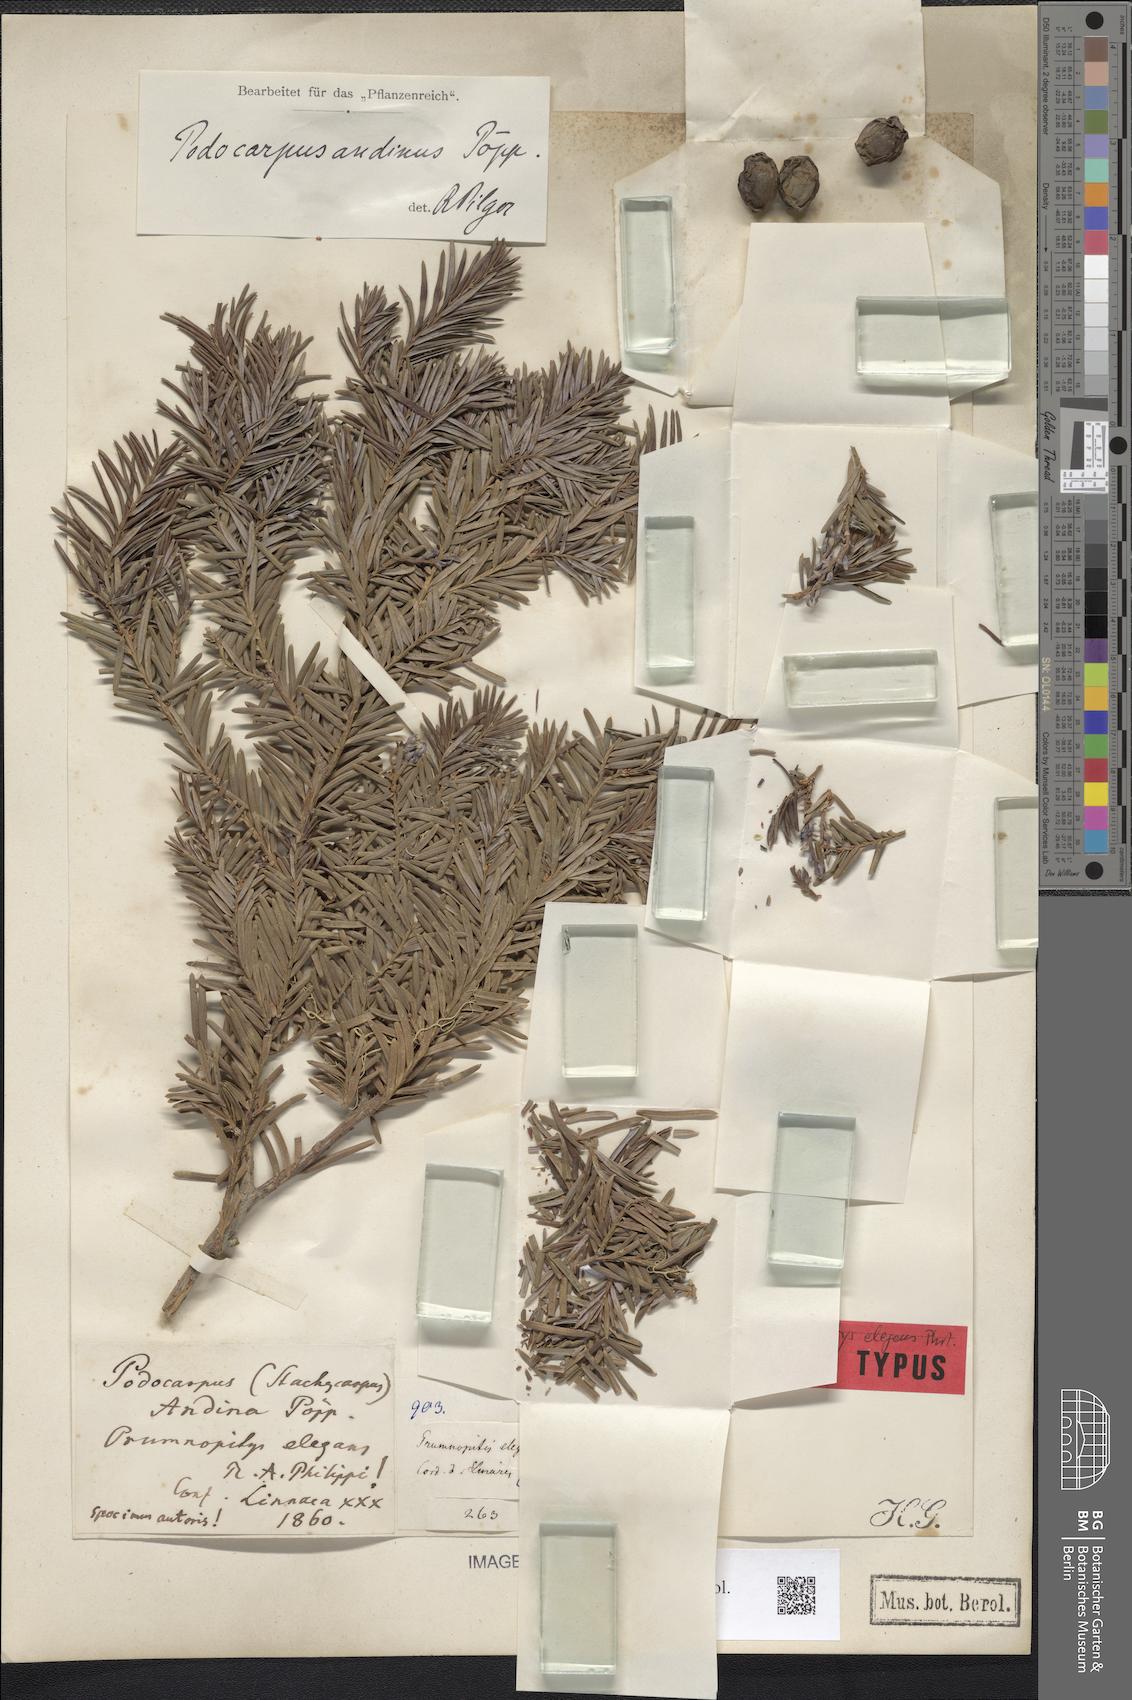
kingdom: Plantae
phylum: Tracheophyta
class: Pinopsida
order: Pinales
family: Podocarpaceae
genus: Prumnopitys
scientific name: Prumnopitys andina
